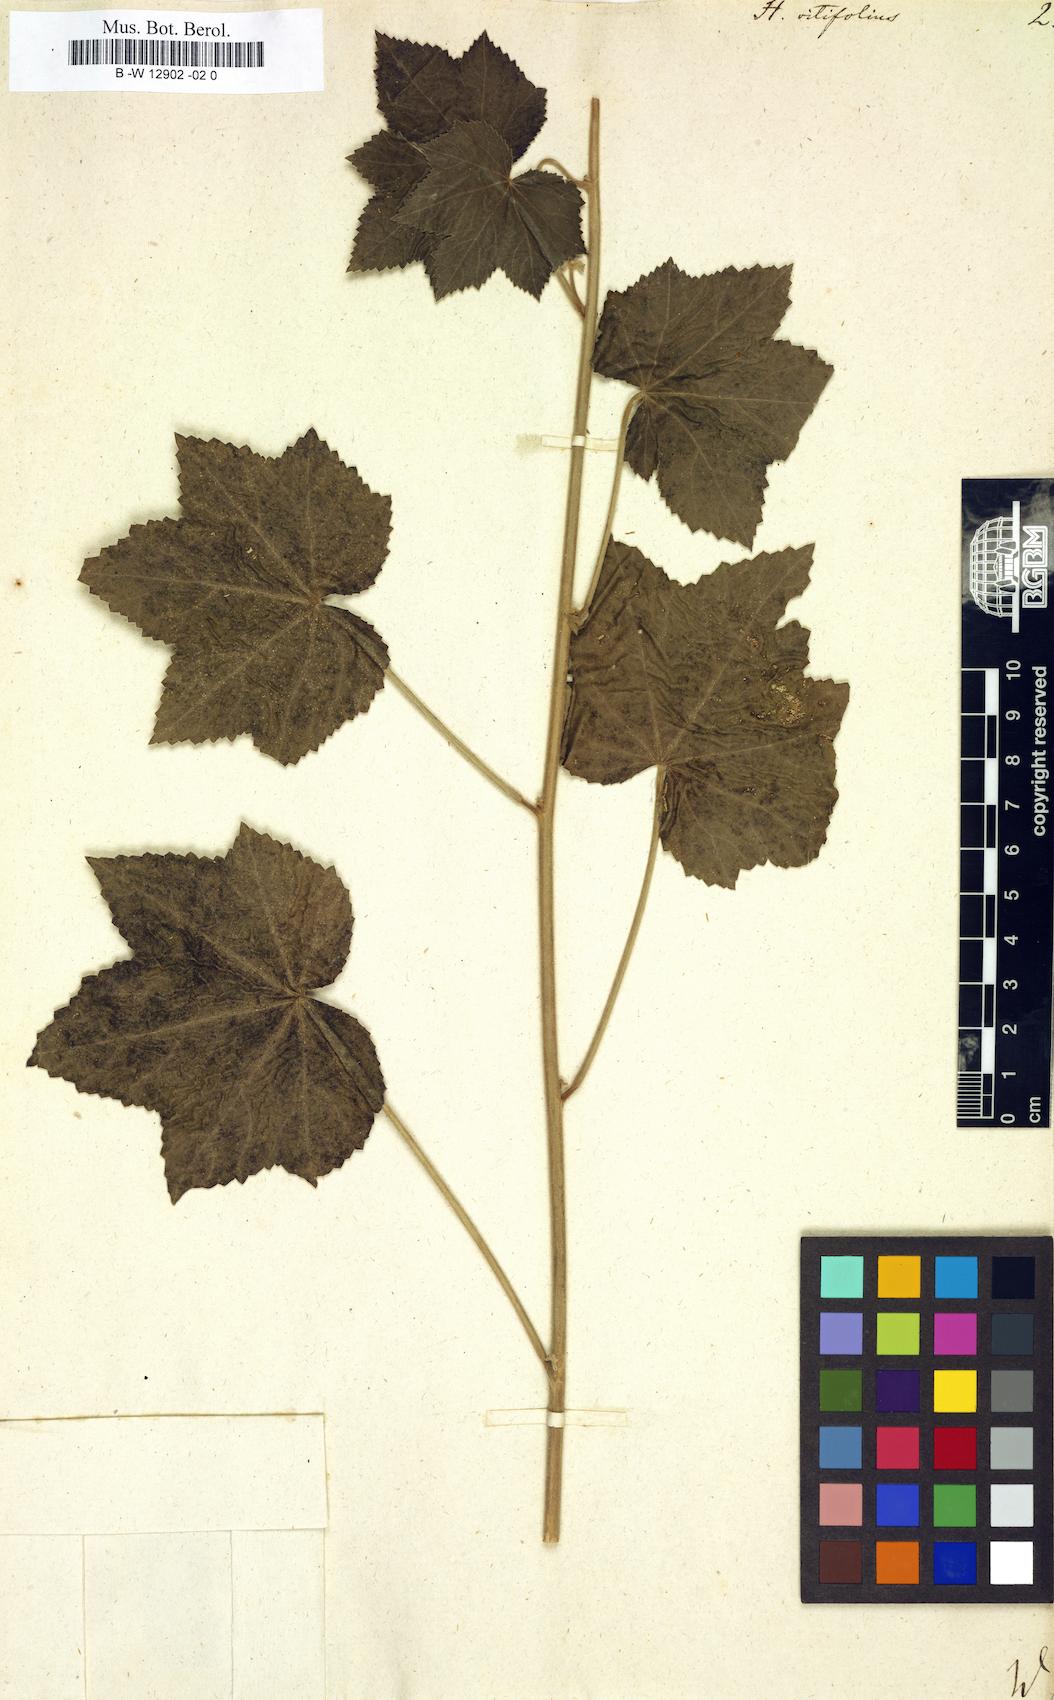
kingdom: Plantae
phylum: Tracheophyta
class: Magnoliopsida
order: Malvales
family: Malvaceae
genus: Hibiscus
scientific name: Hibiscus vitifolius
